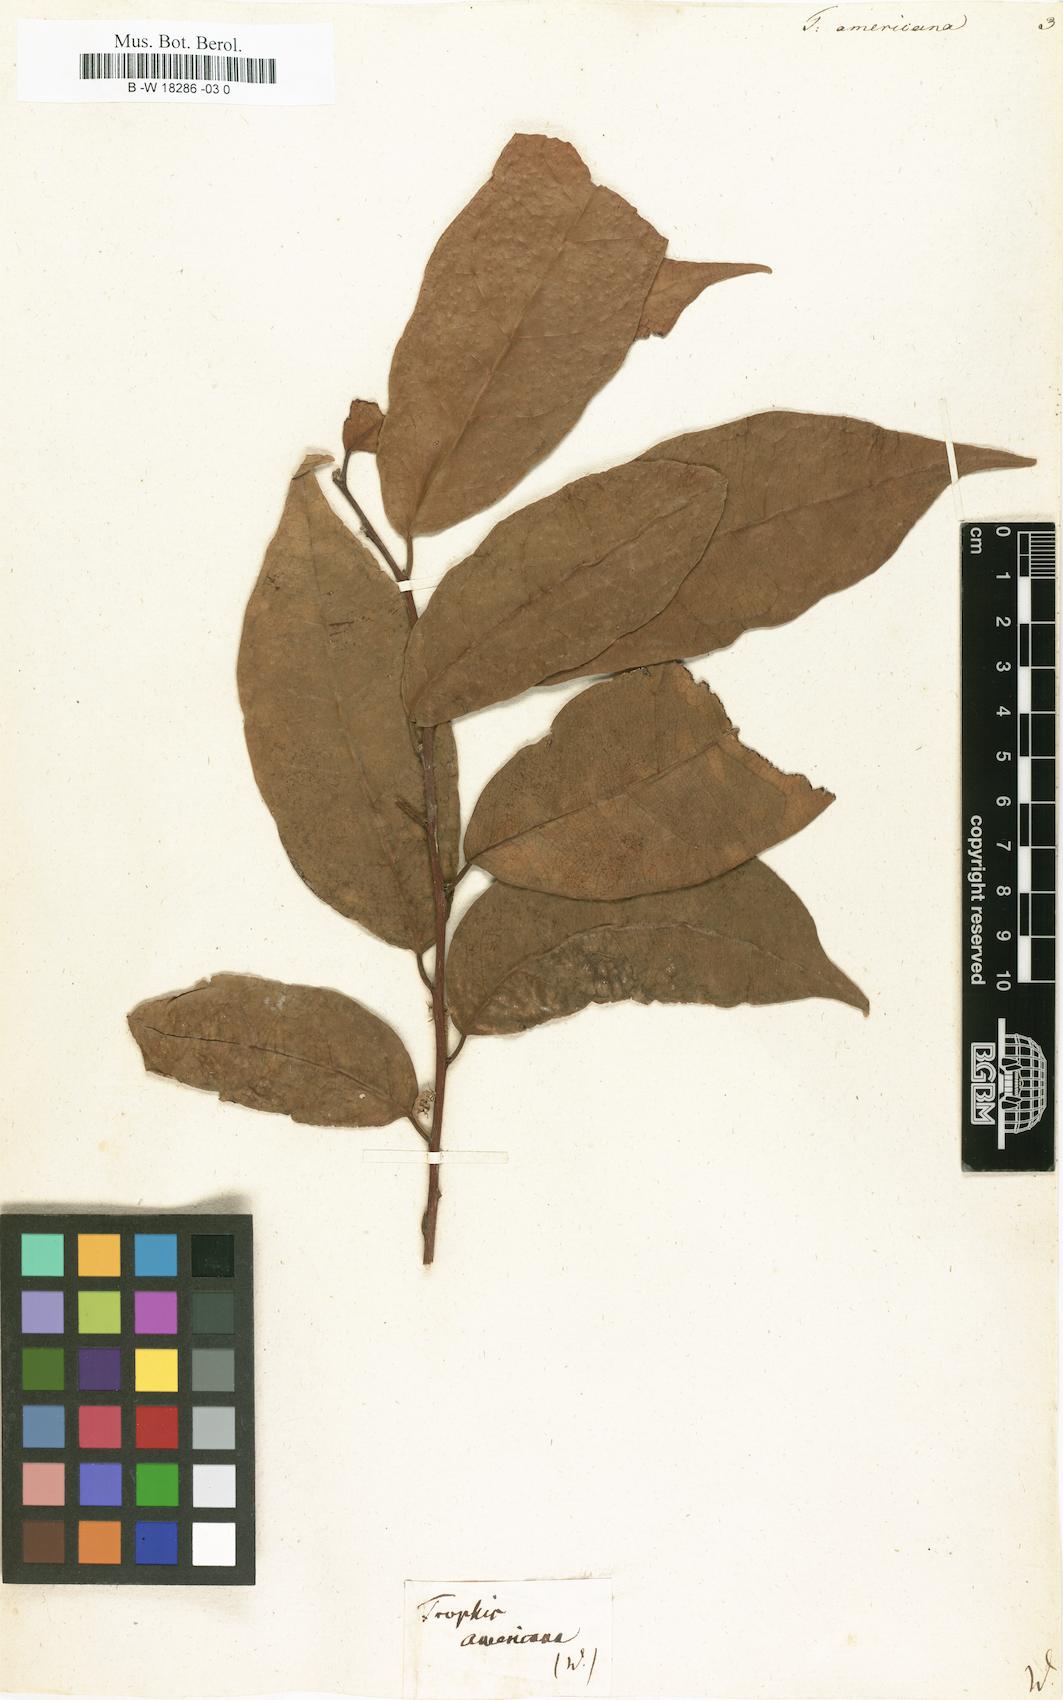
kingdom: Plantae
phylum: Tracheophyta
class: Magnoliopsida
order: Rosales
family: Moraceae
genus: Trophis
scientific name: Trophis racemosa
